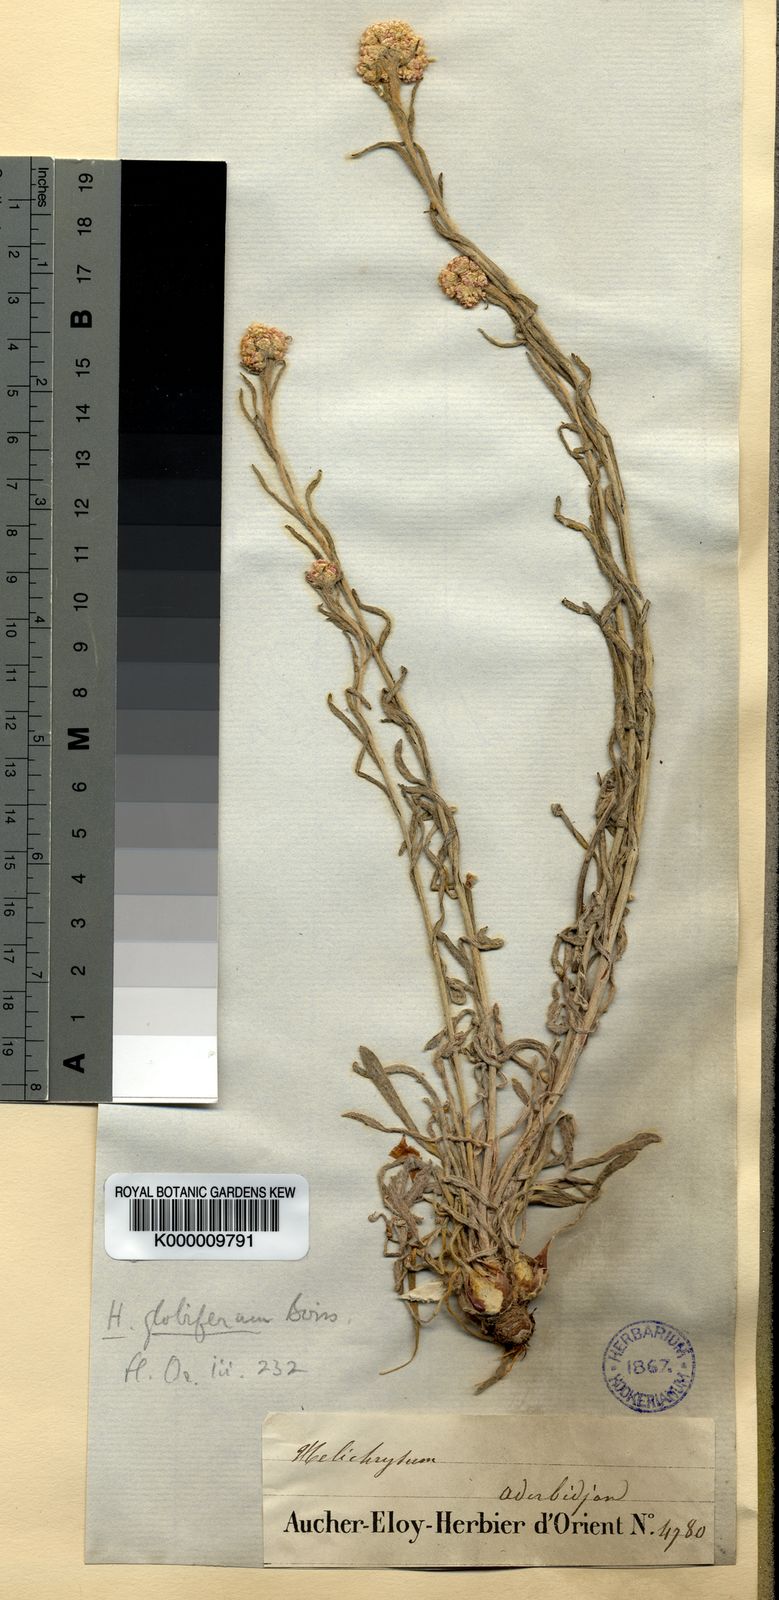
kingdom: Plantae
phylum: Tracheophyta
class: Magnoliopsida
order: Asterales
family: Asteraceae
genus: Helichrysum
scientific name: Helichrysum globiferum
